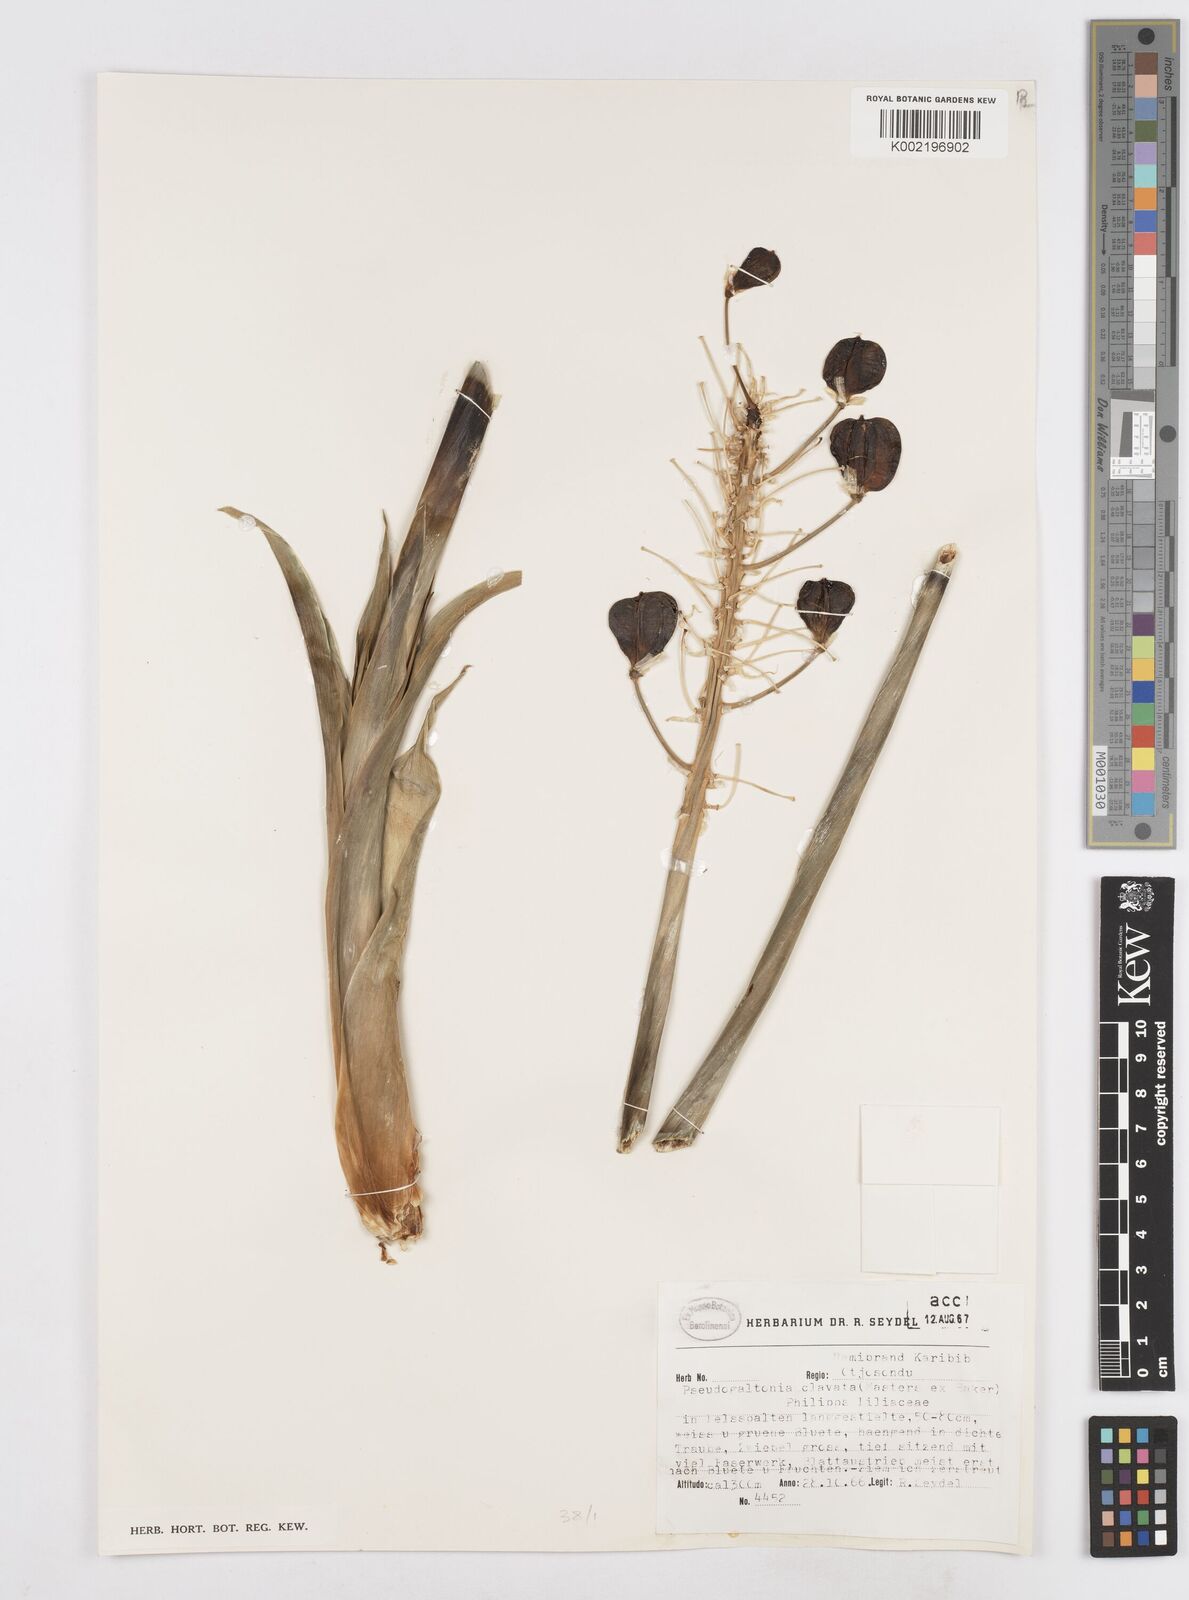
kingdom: Plantae
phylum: Tracheophyta
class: Liliopsida
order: Asparagales
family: Asparagaceae
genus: Pseudogaltonia
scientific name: Pseudogaltonia clavata
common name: South west african slangkop
